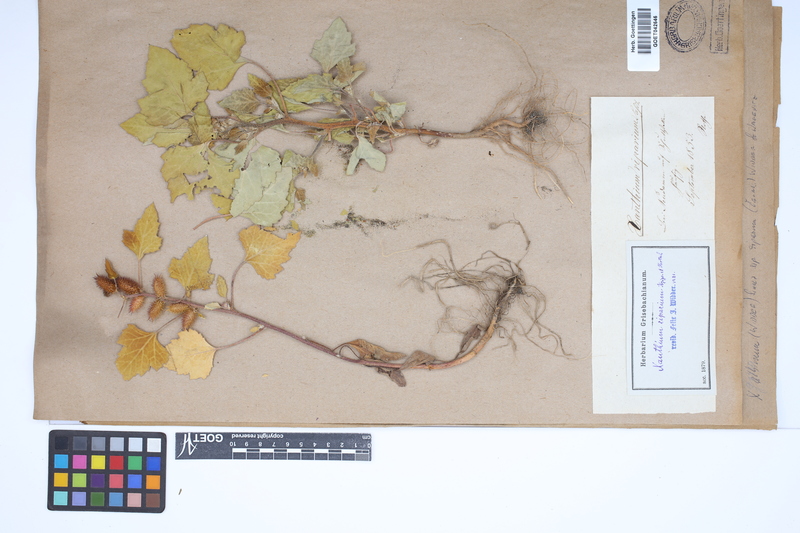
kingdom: Plantae
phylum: Tracheophyta
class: Magnoliopsida
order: Asterales
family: Asteraceae
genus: Xanthium
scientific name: Xanthium orientale
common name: Californian burr
